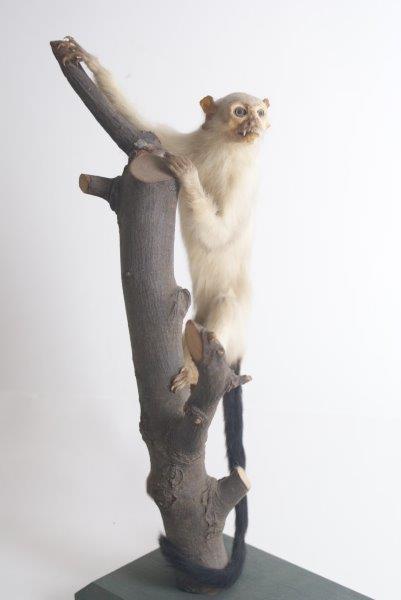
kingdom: Animalia
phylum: Chordata
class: Mammalia
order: Primates
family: Callitrichidae
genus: Mico
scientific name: Mico argentatus
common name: Silvery Marmoset
